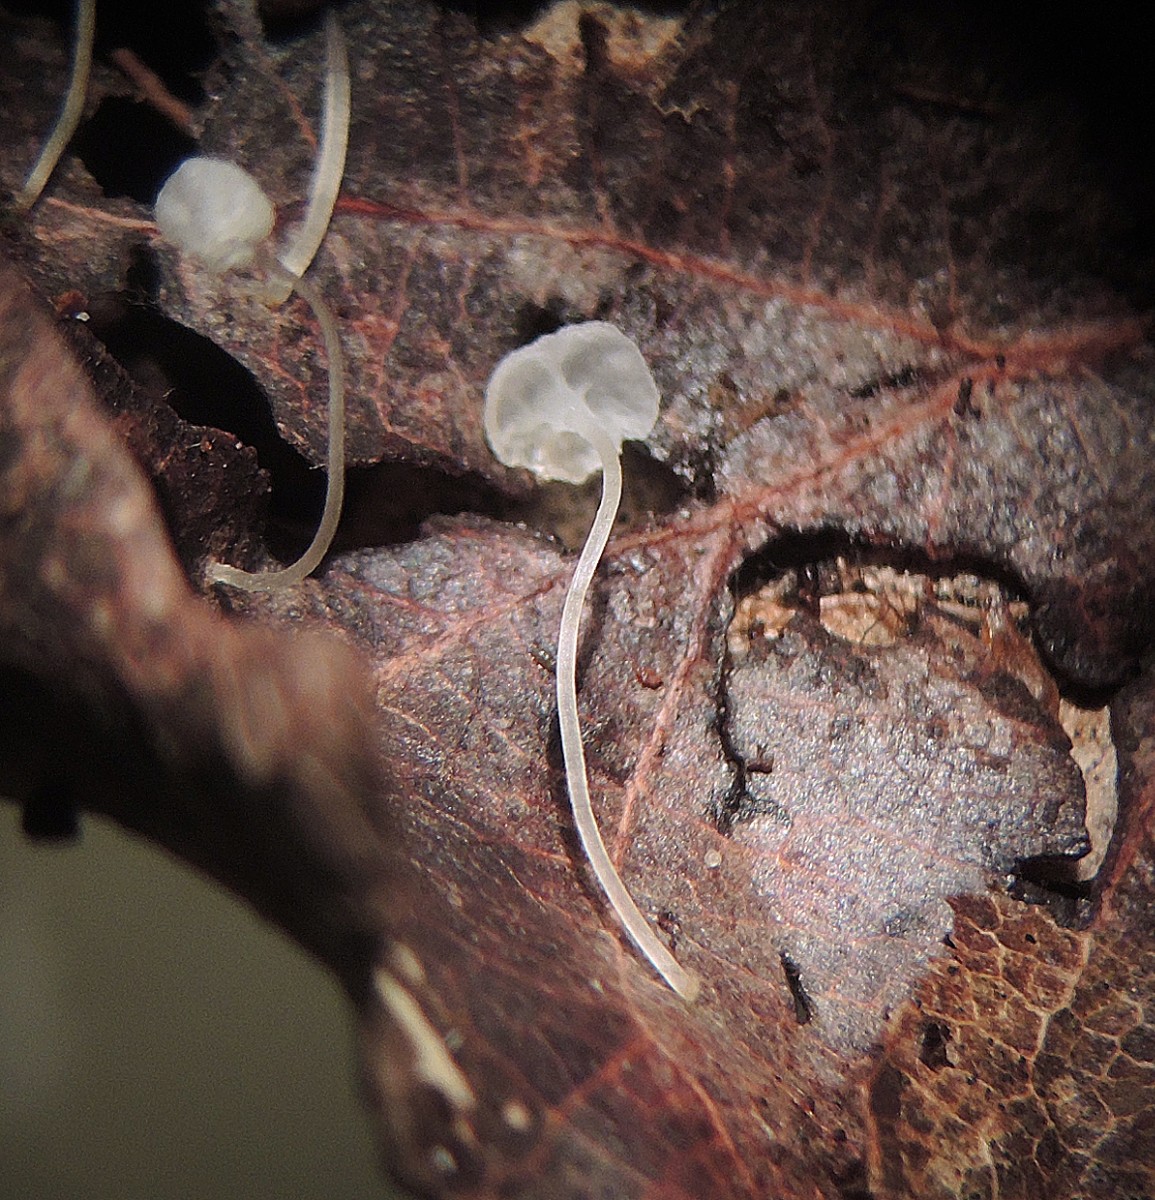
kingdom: Fungi
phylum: Basidiomycota
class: Agaricomycetes
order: Agaricales
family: Mycenaceae
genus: Mycena
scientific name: Mycena polyadelpha
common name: egeblads-huesvamp
